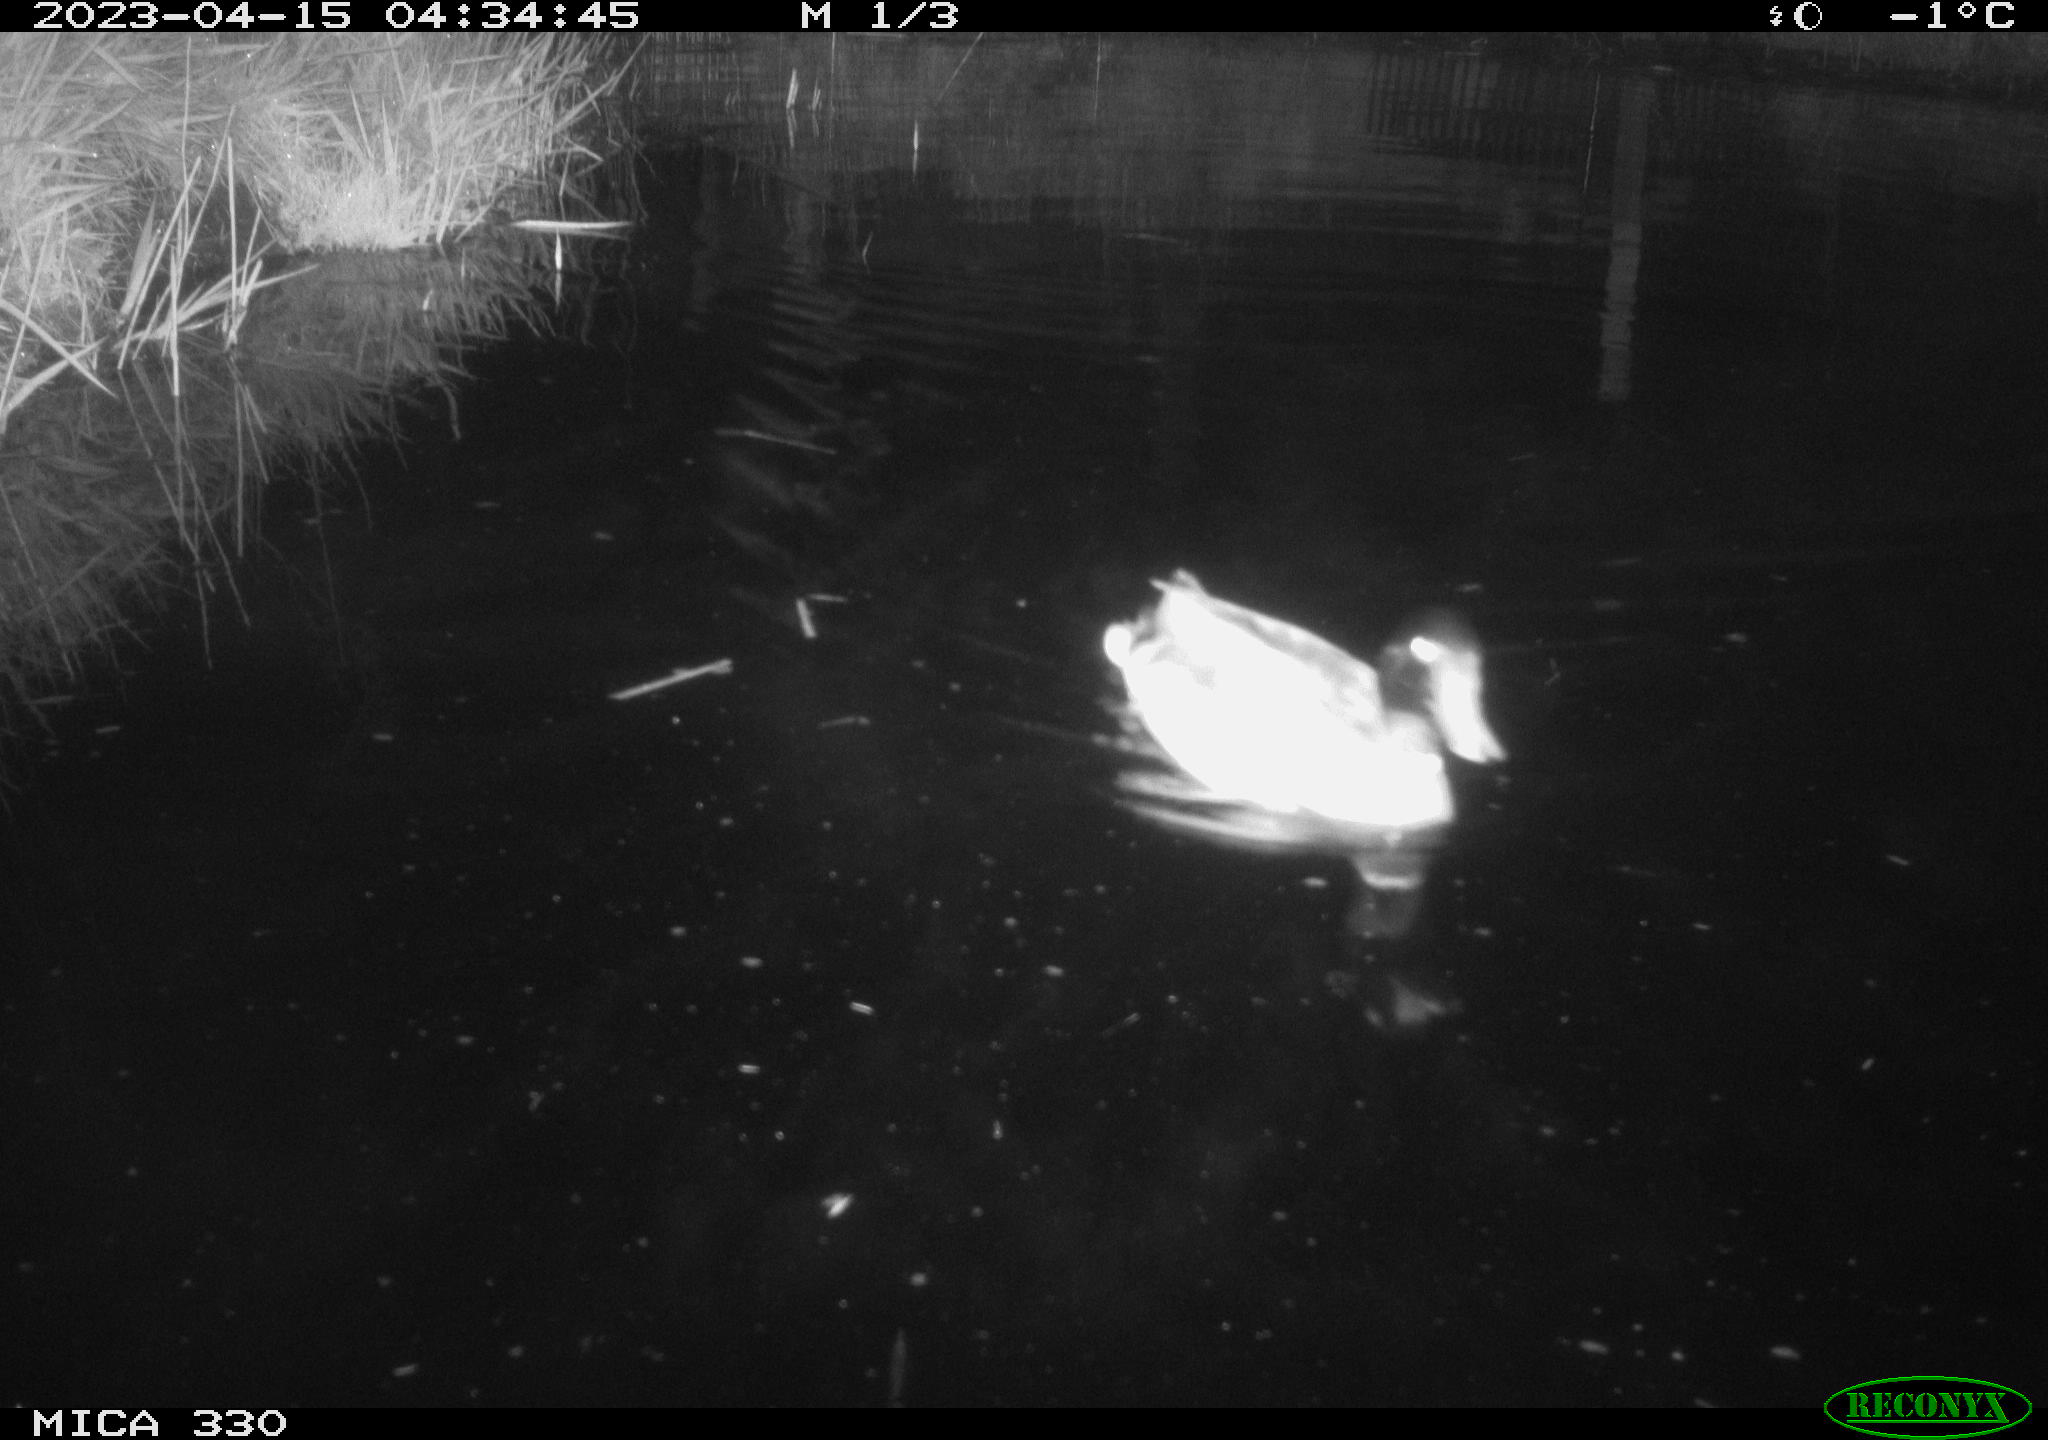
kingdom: Animalia
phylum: Chordata
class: Aves
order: Anseriformes
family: Anatidae
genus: Anas
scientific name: Anas
